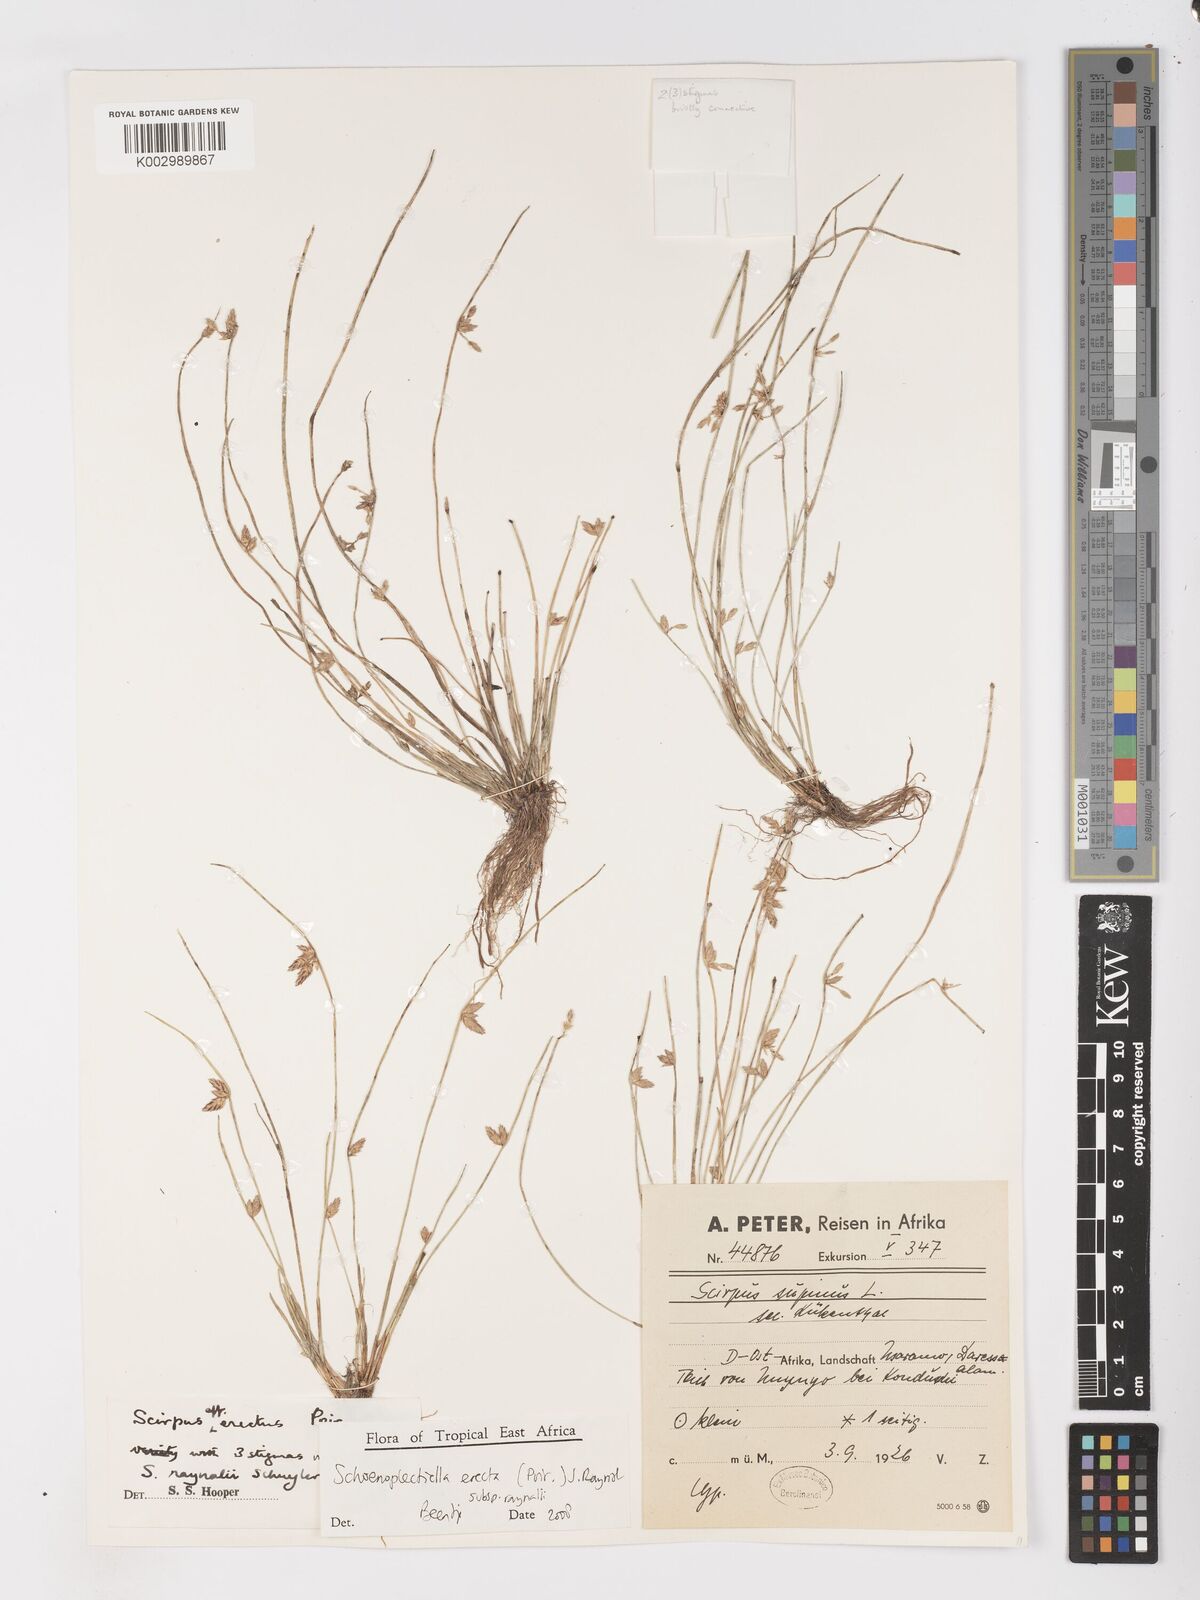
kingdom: Plantae
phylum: Tracheophyta
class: Liliopsida
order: Poales
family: Cyperaceae
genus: Schoenoplectiella
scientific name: Schoenoplectiella erecta
